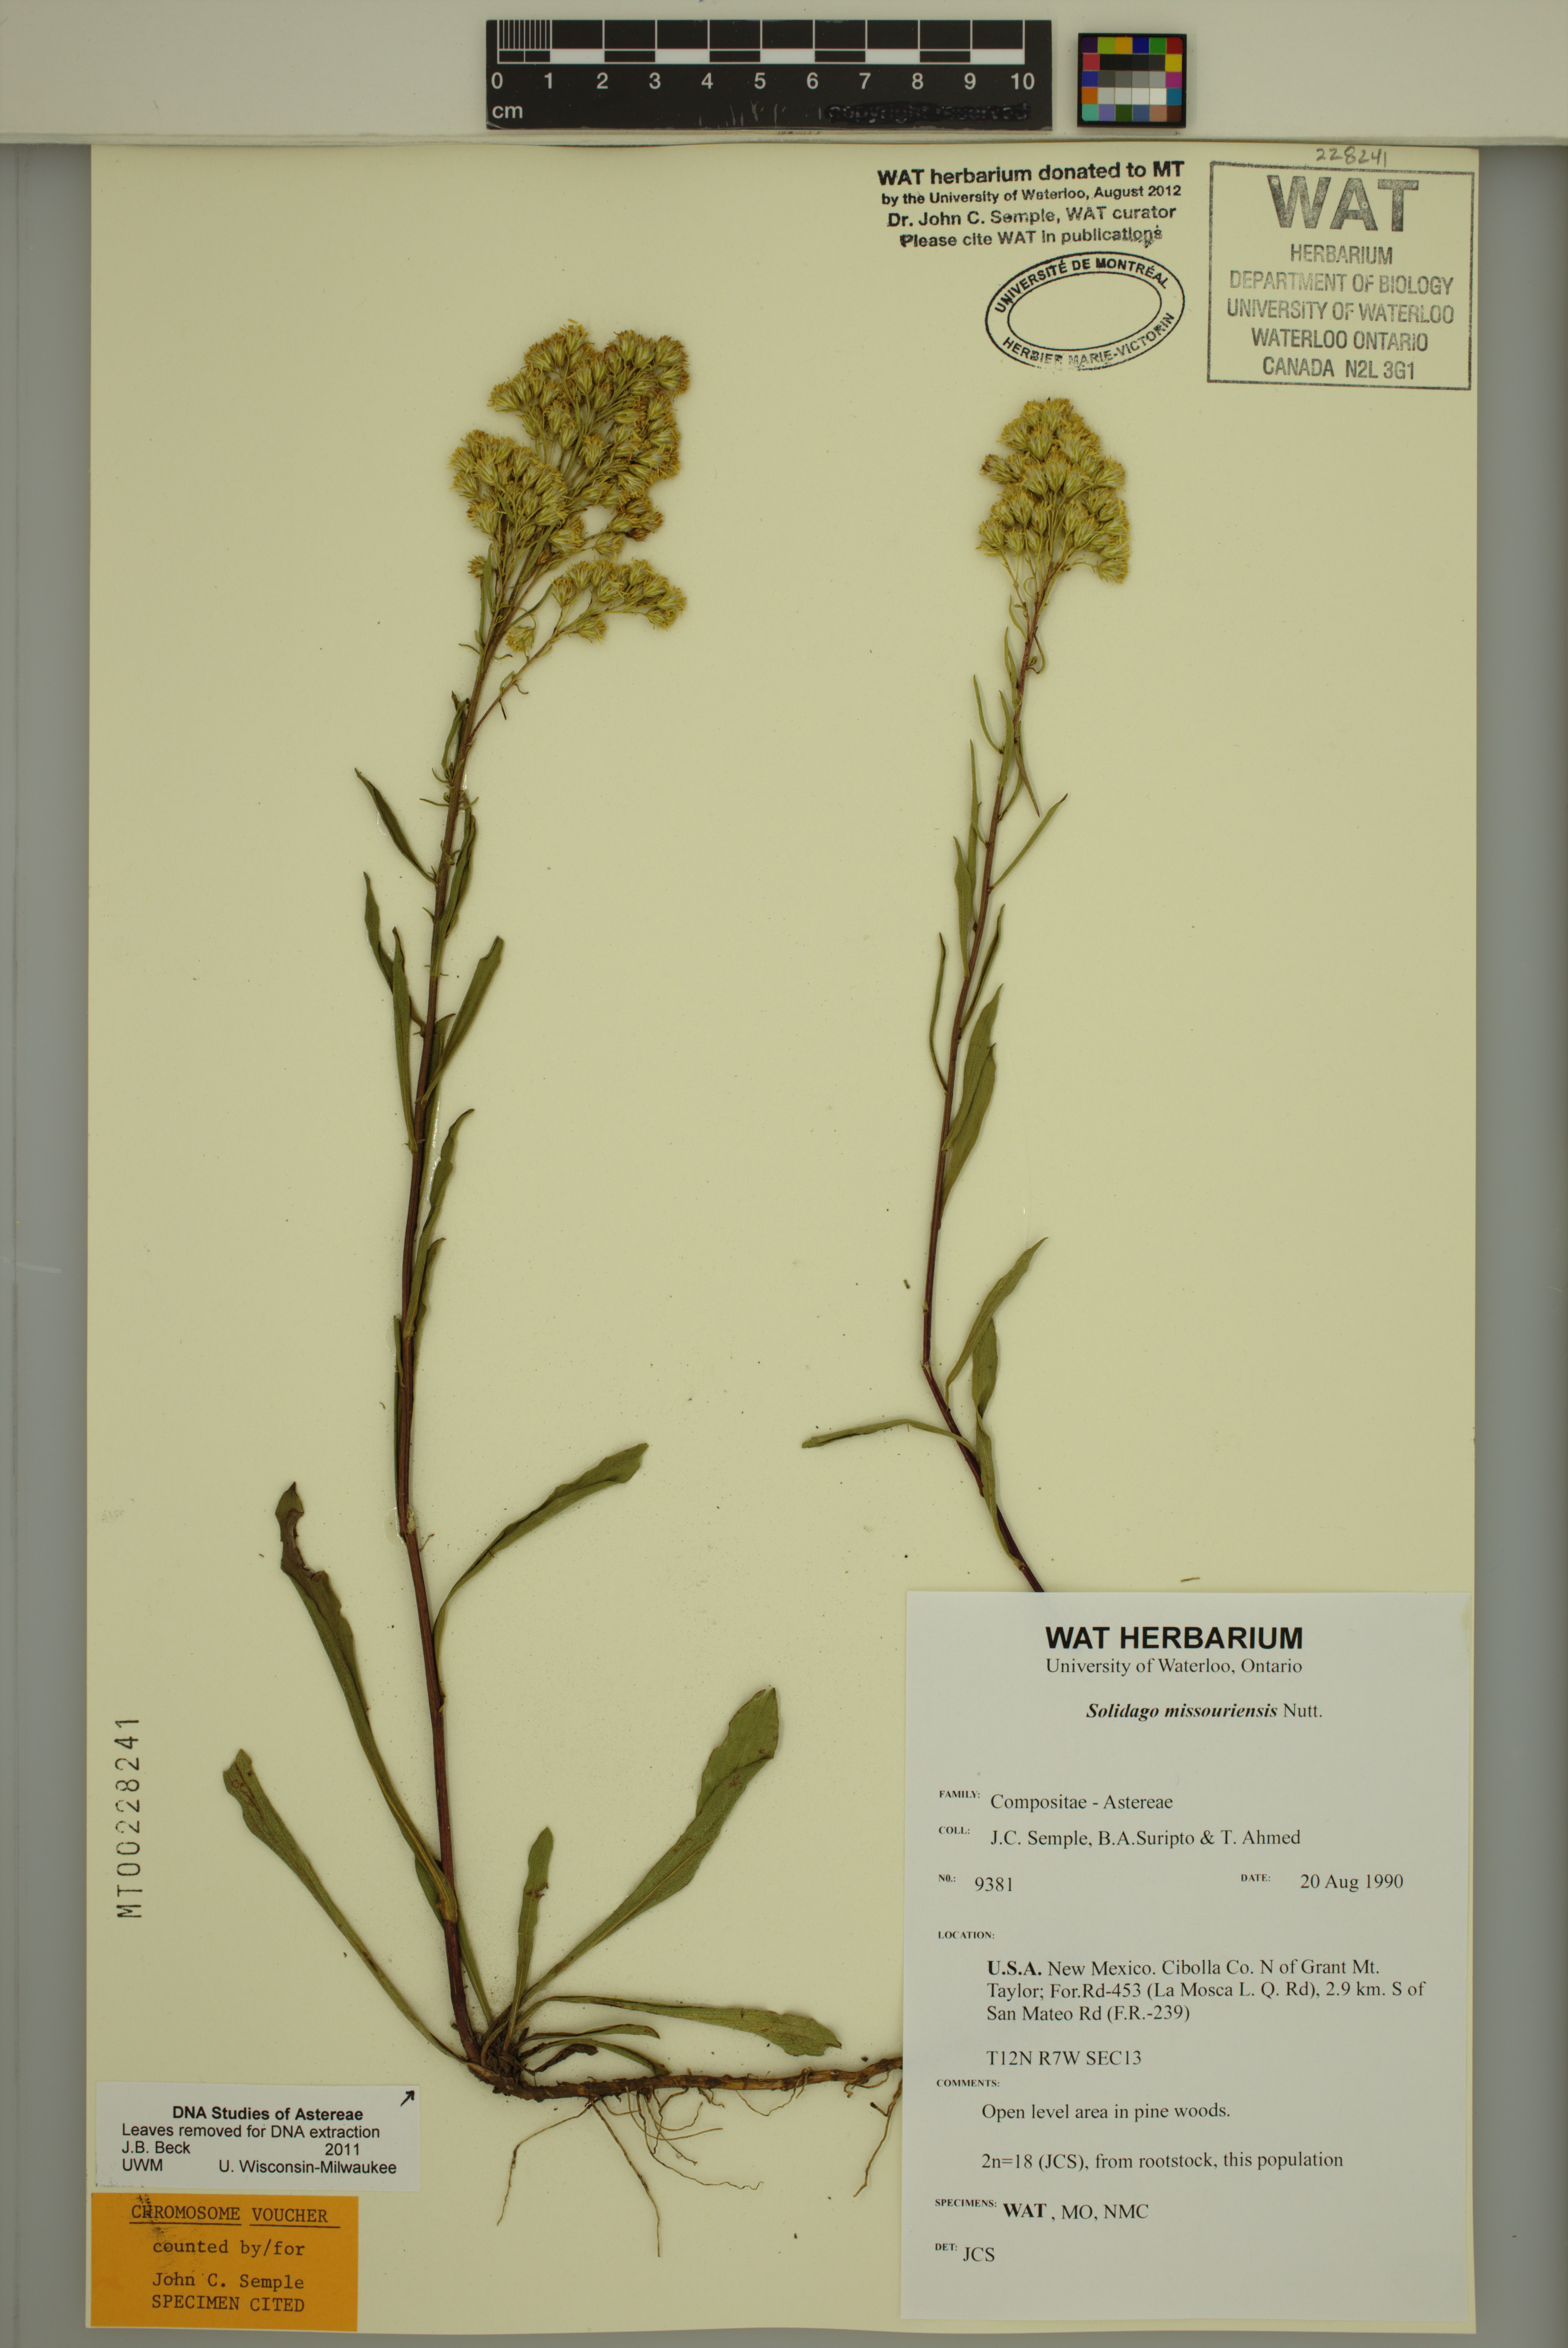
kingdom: Plantae
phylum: Tracheophyta
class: Magnoliopsida
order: Asterales
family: Asteraceae
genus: Solidago
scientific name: Solidago missouriensis
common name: Prairie goldenrod
